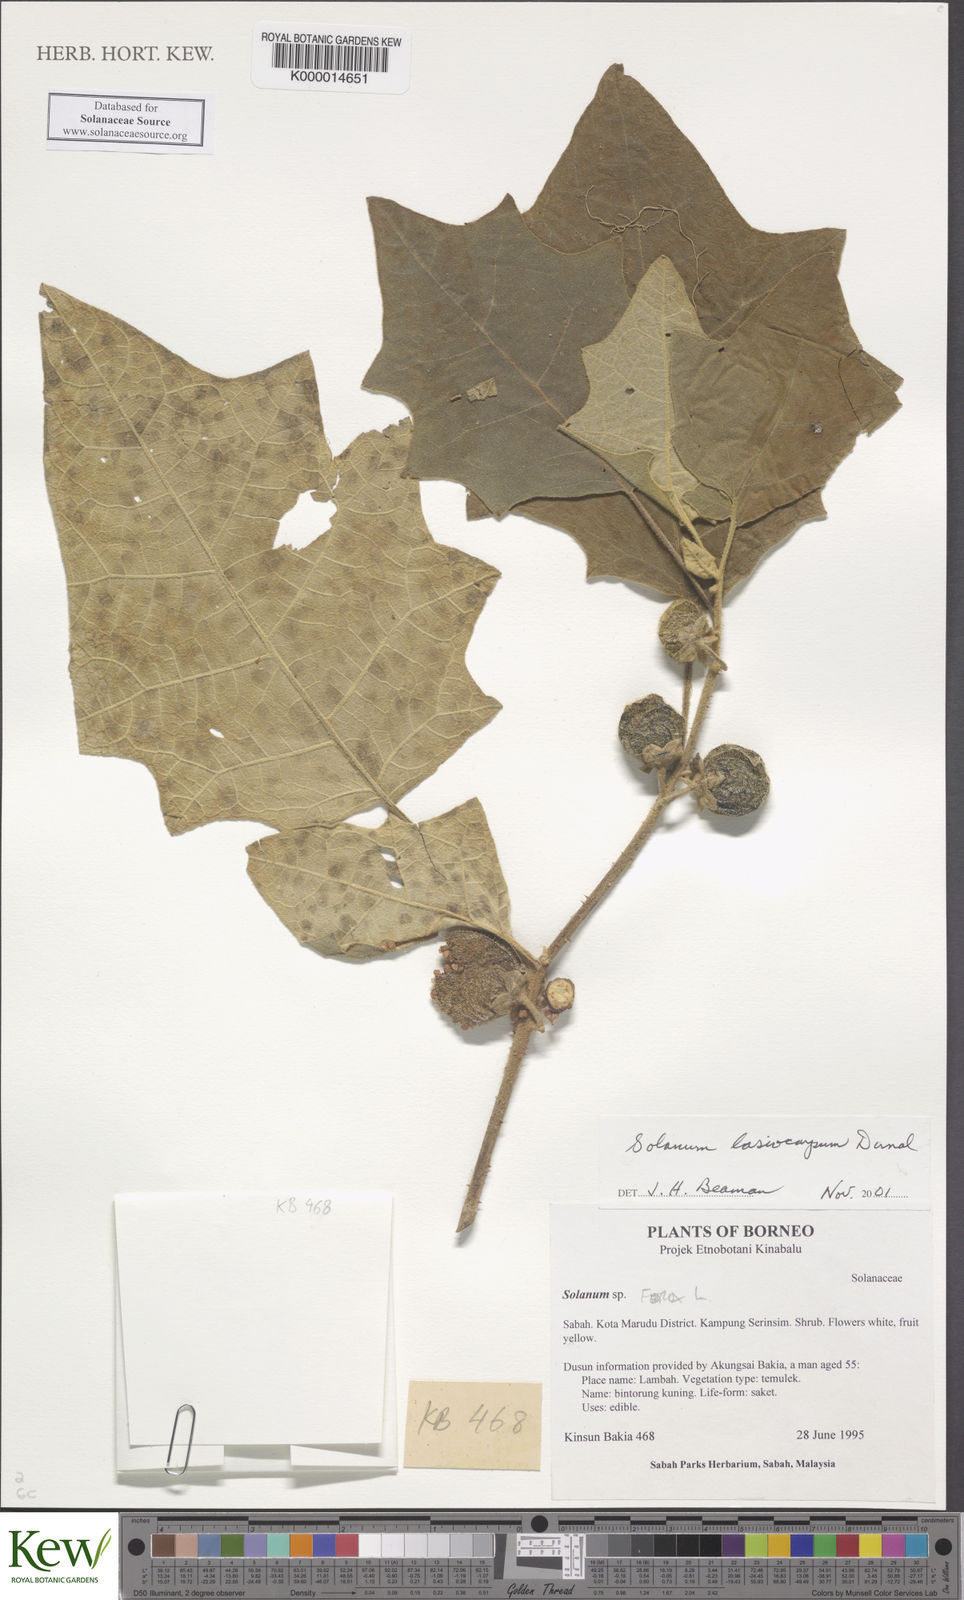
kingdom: Plantae
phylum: Tracheophyta
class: Magnoliopsida
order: Solanales
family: Solanaceae
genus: Solanum
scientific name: Solanum lasiocarpum
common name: Indian nightshade
